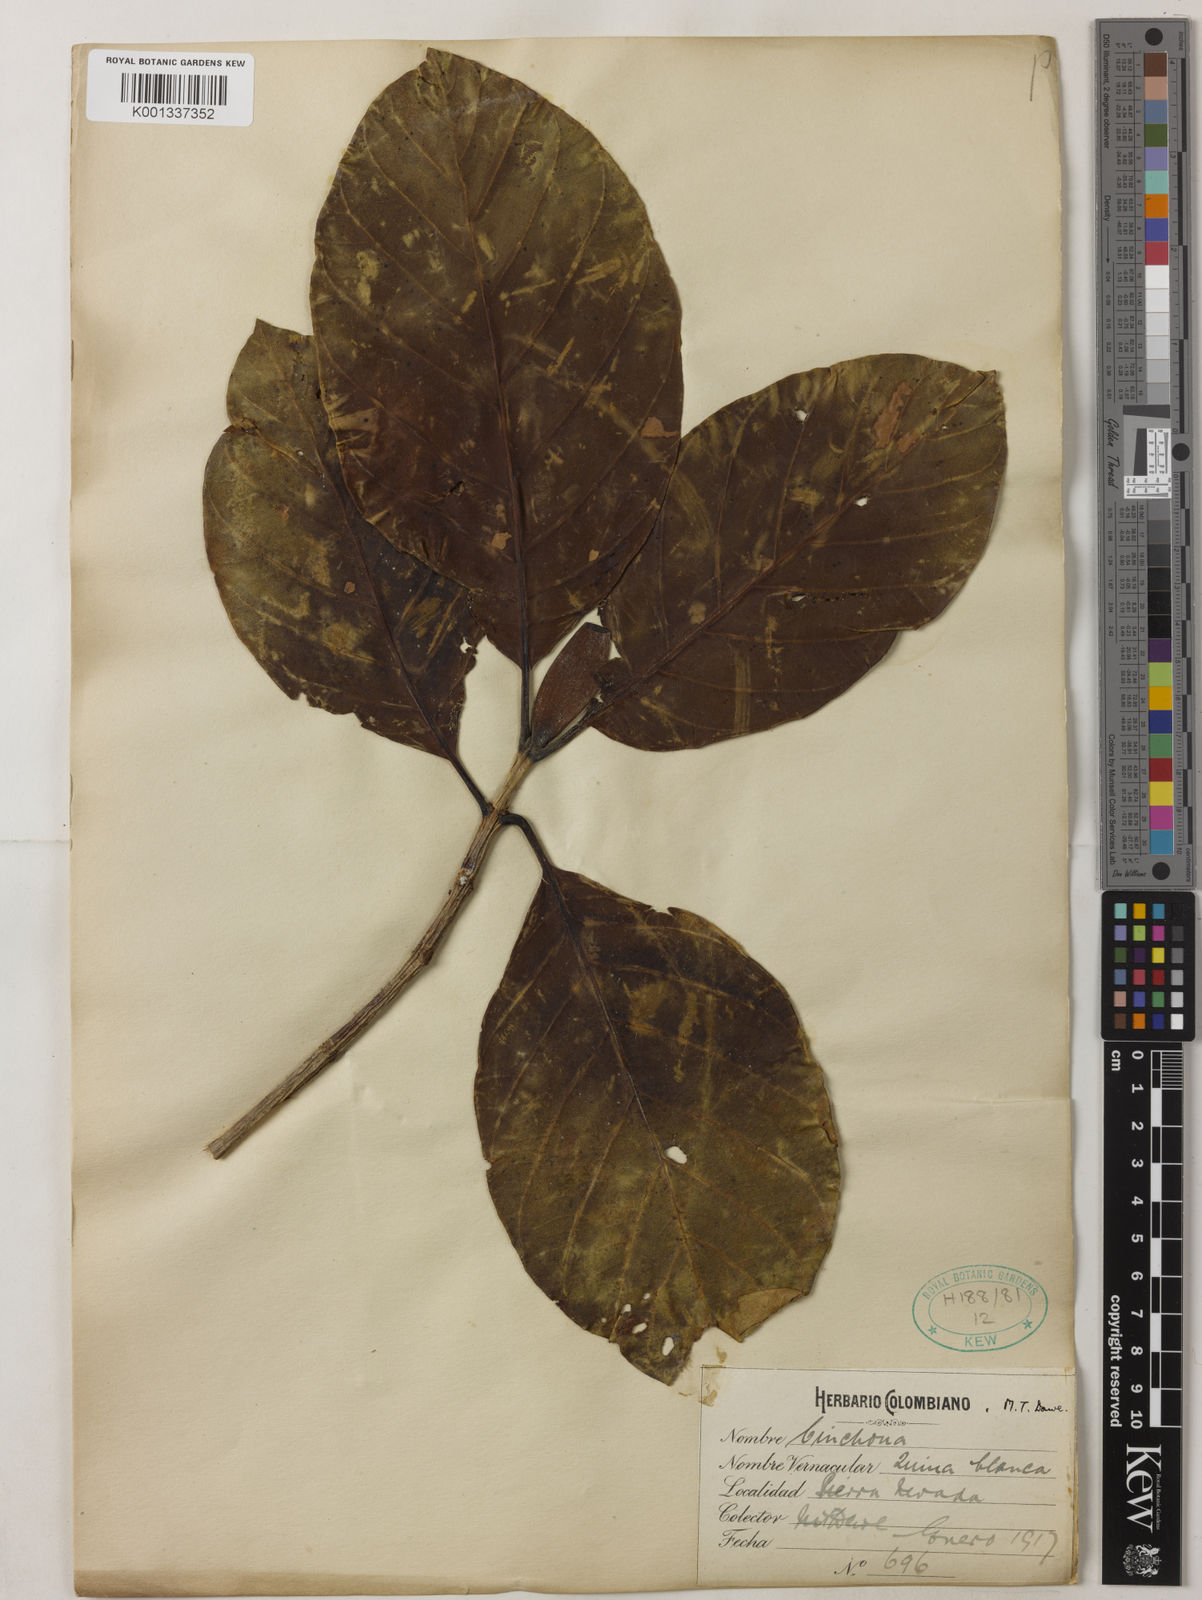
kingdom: Plantae
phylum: Tracheophyta
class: Magnoliopsida
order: Gentianales
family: Rubiaceae
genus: Cinchona
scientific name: Cinchona
